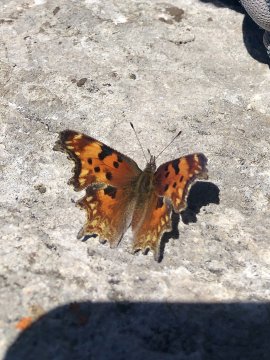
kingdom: Animalia
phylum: Arthropoda
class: Insecta
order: Lepidoptera
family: Nymphalidae
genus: Polygonia
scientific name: Polygonia gracilis
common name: Hoary Comma
